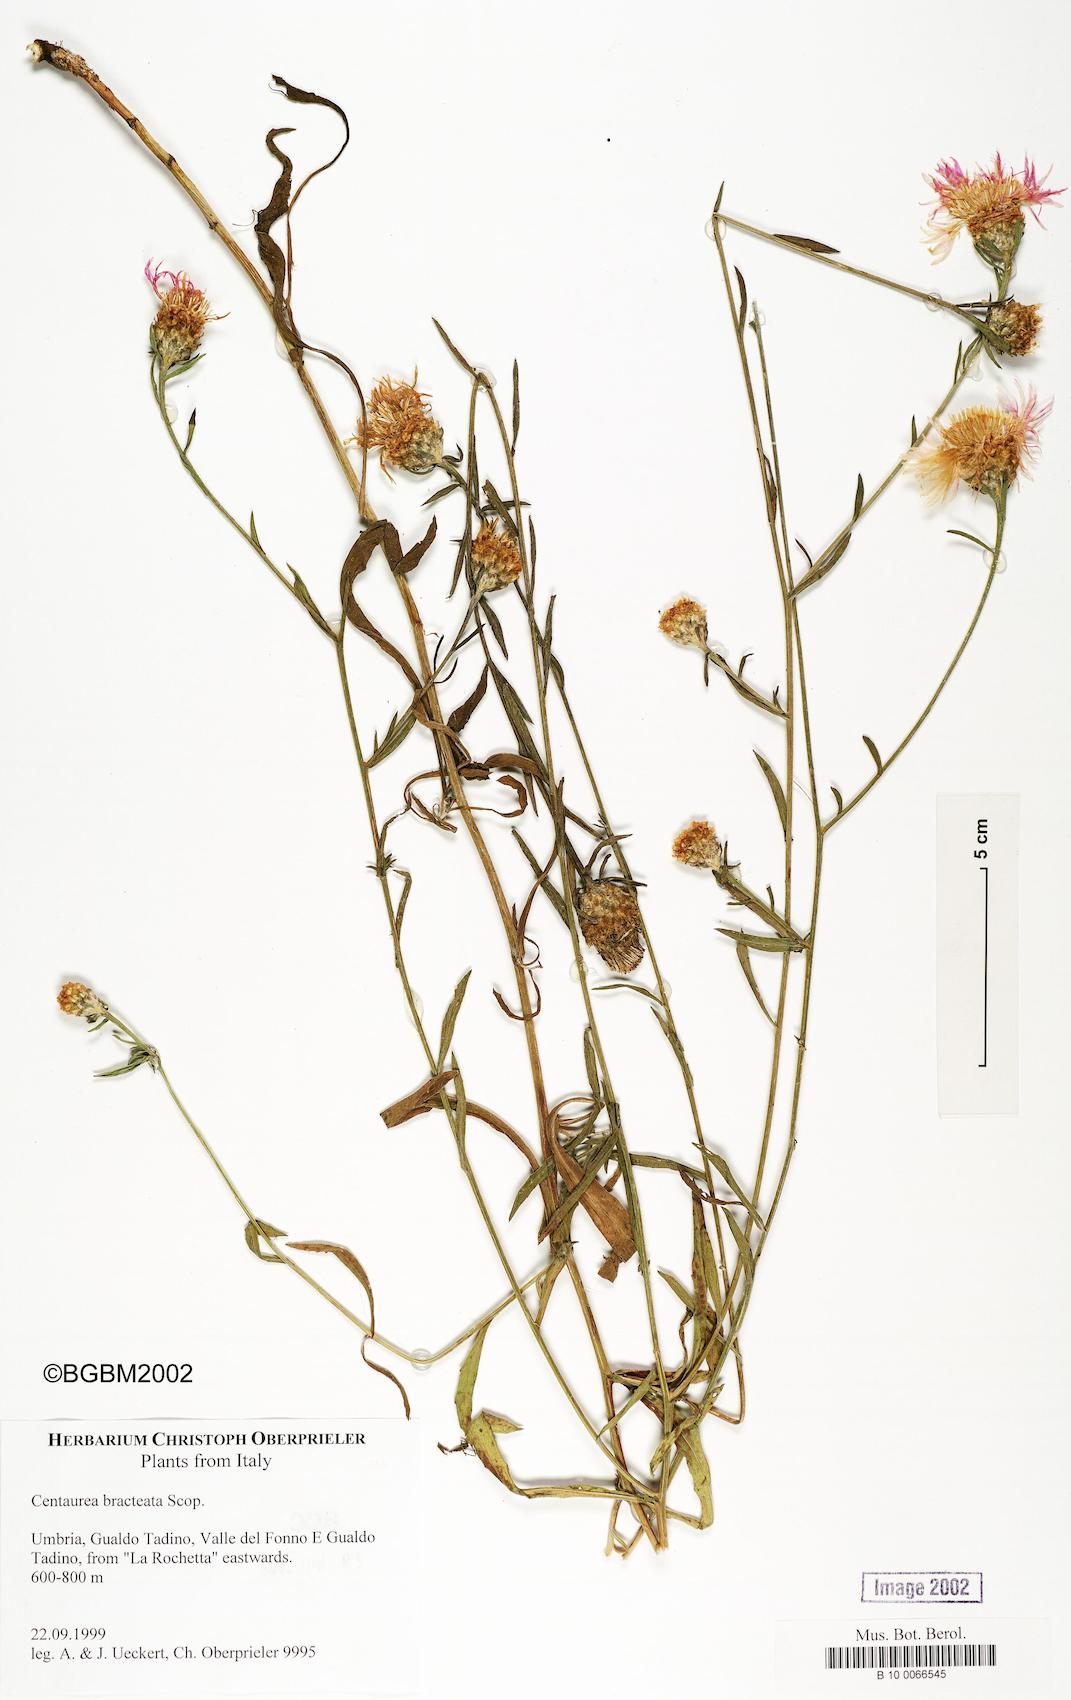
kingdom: Plantae
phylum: Tracheophyta
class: Magnoliopsida
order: Asterales
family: Asteraceae
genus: Centaurea
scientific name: Centaurea jacea
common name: Brown knapweed
